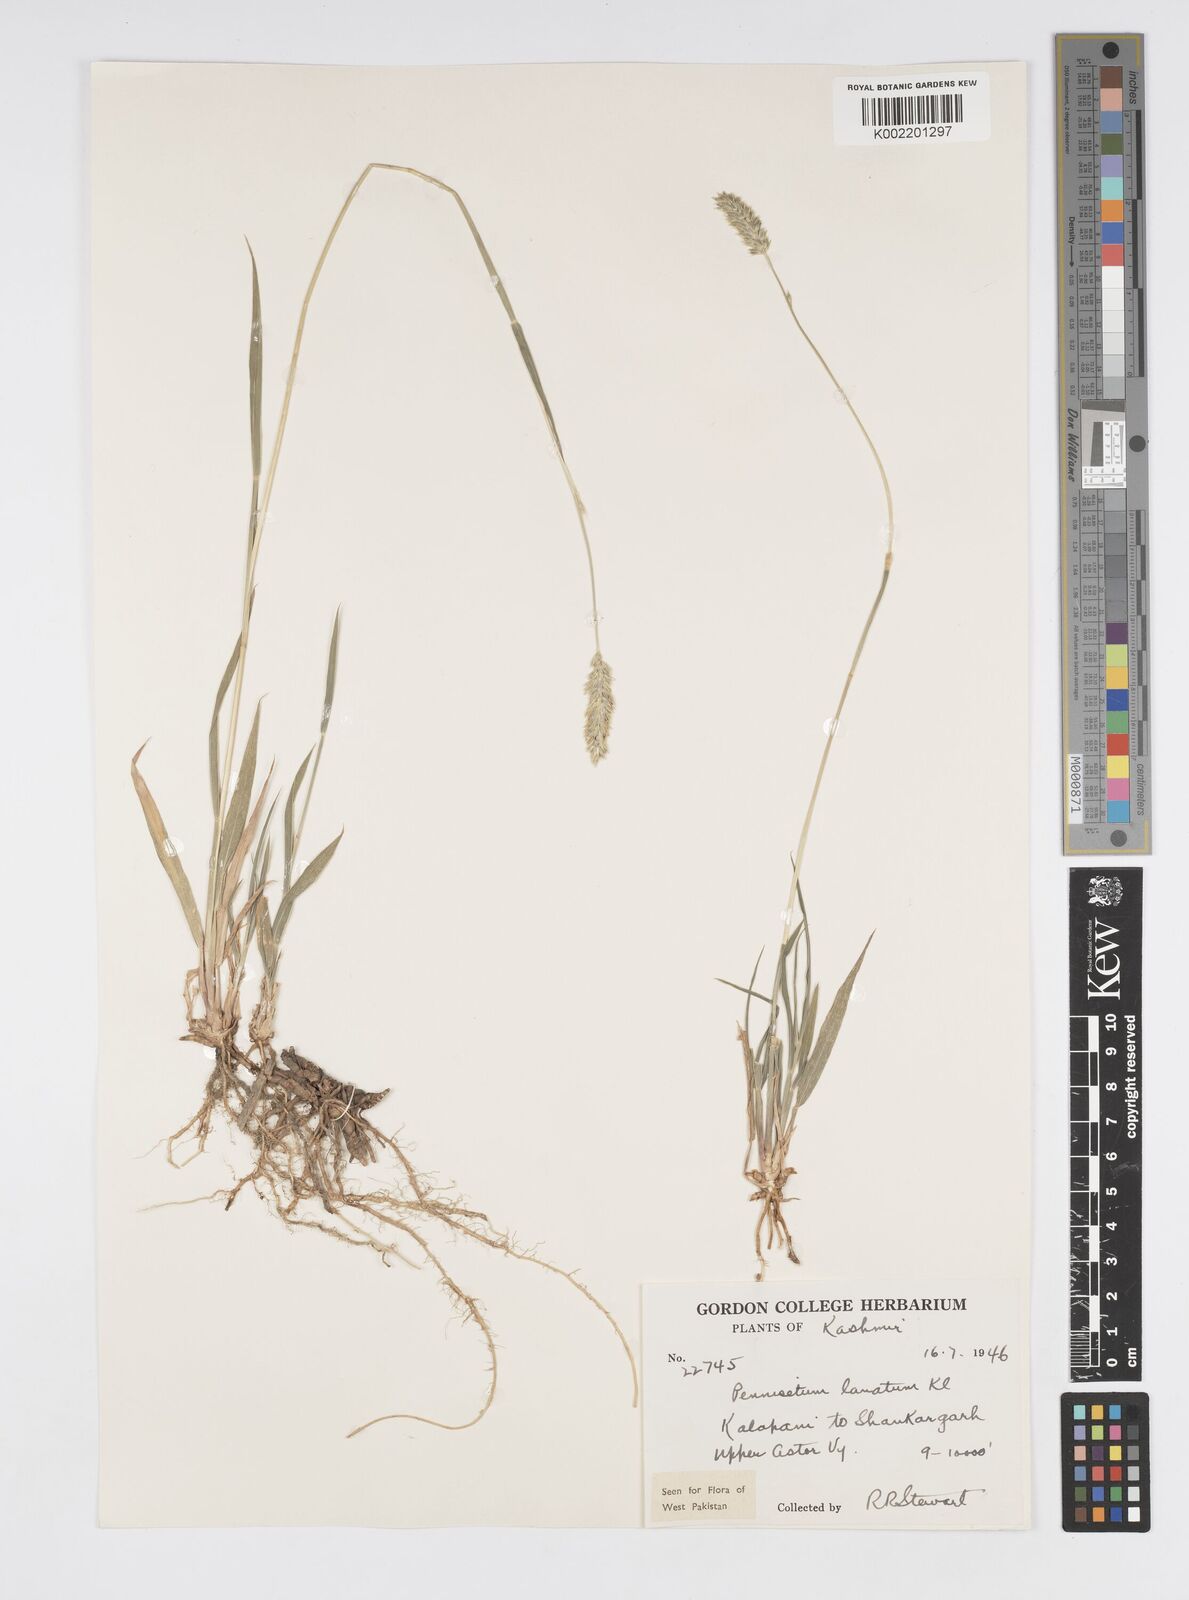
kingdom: Plantae
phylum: Tracheophyta
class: Liliopsida
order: Poales
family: Poaceae
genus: Cenchrus
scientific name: Cenchrus lanatus
